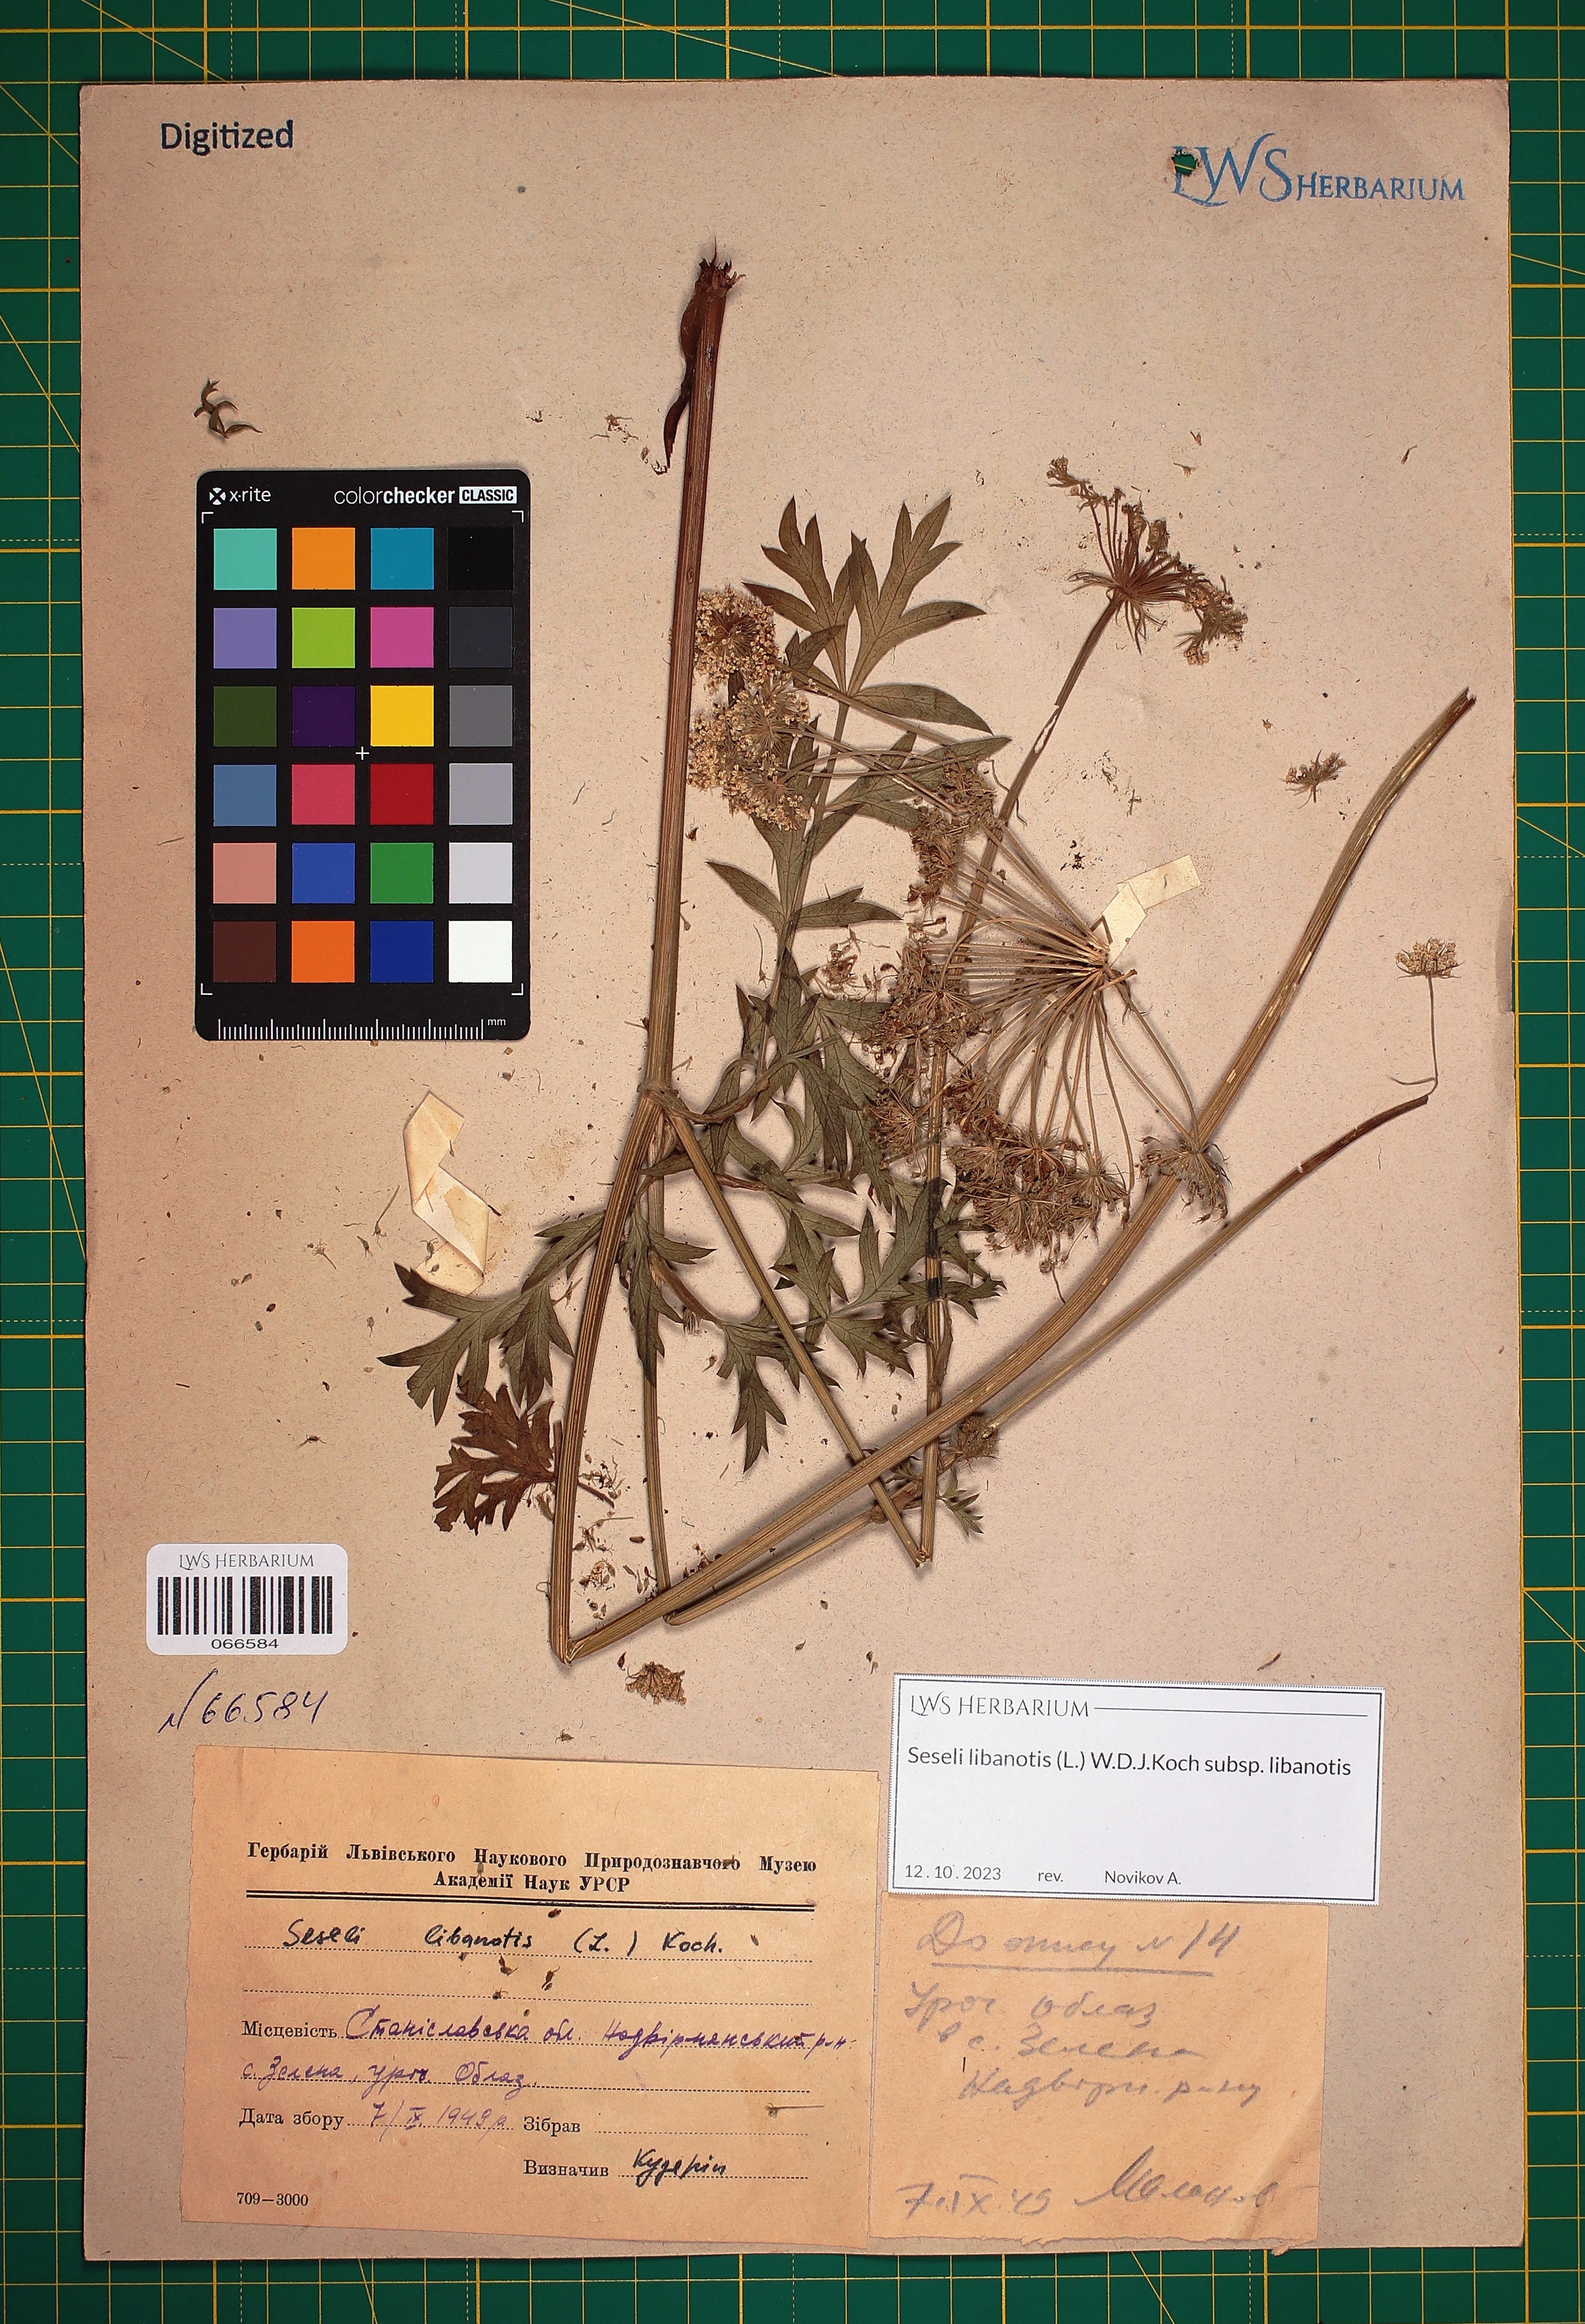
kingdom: Plantae
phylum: Tracheophyta
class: Magnoliopsida
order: Apiales
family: Apiaceae
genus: Seseli
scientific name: Seseli libanotis
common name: Mooncarrot
